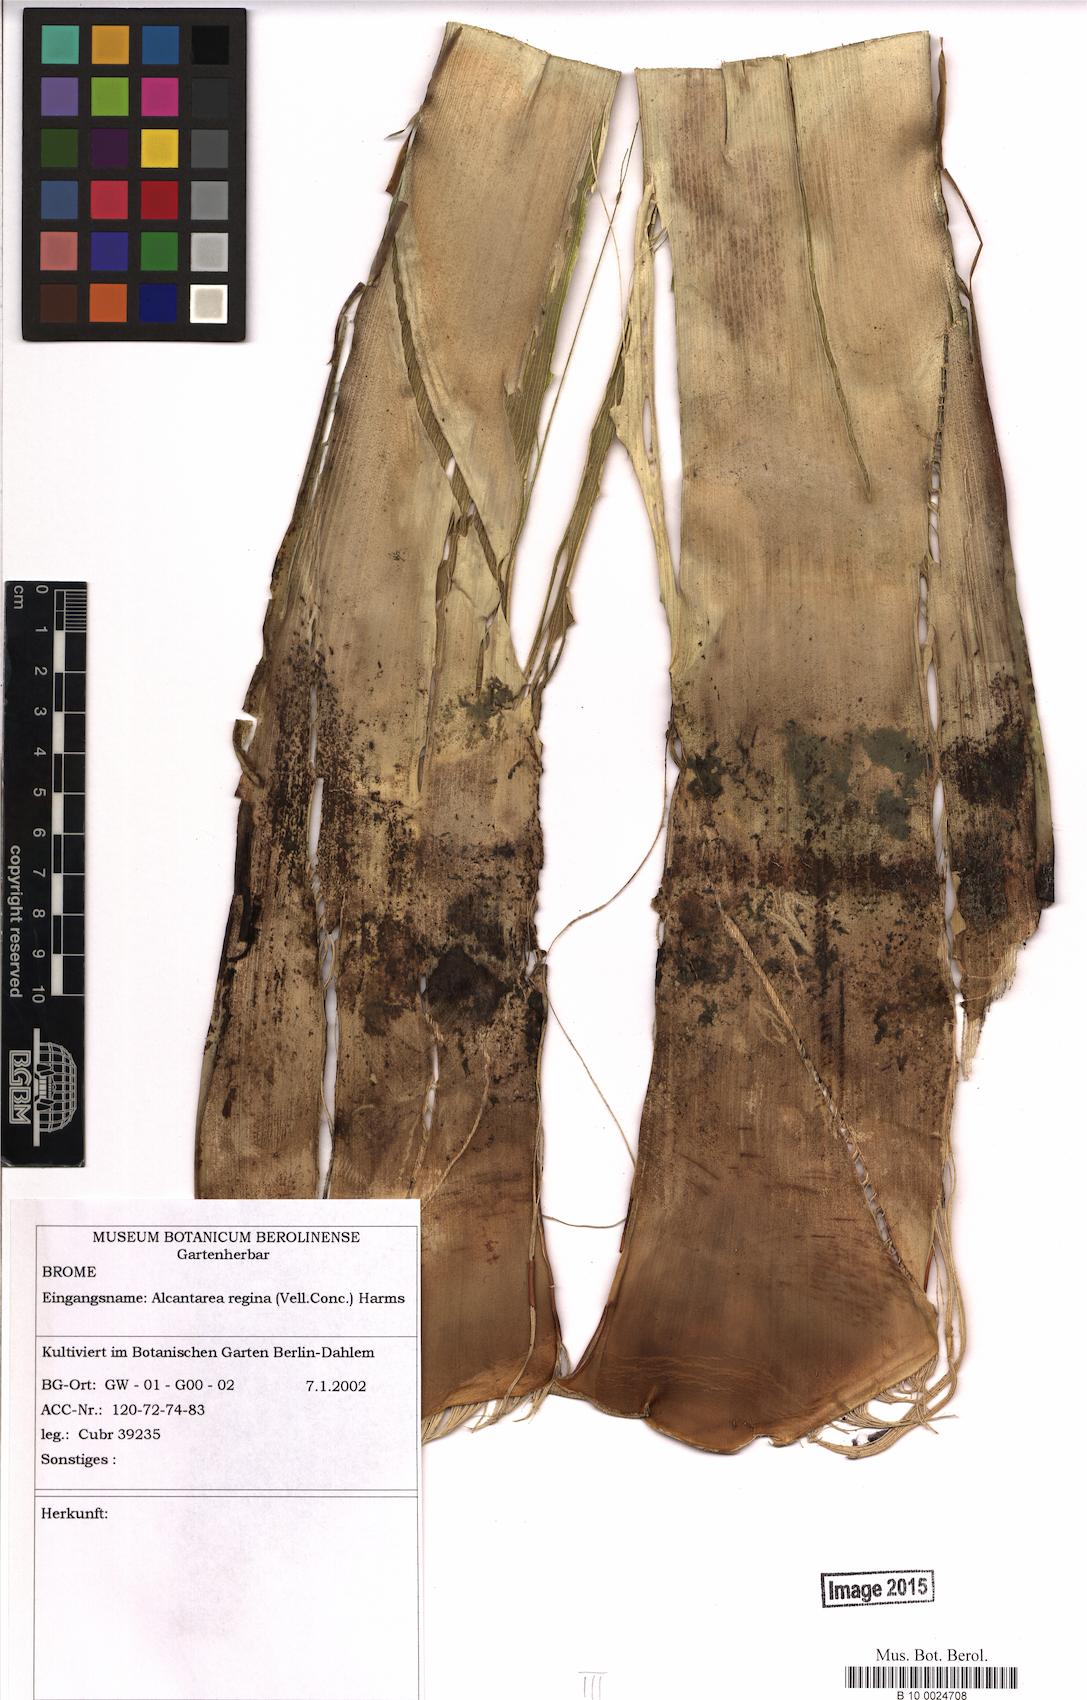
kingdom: Plantae
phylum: Tracheophyta
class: Liliopsida
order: Poales
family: Bromeliaceae
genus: Alcantarea
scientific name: Alcantarea regina
